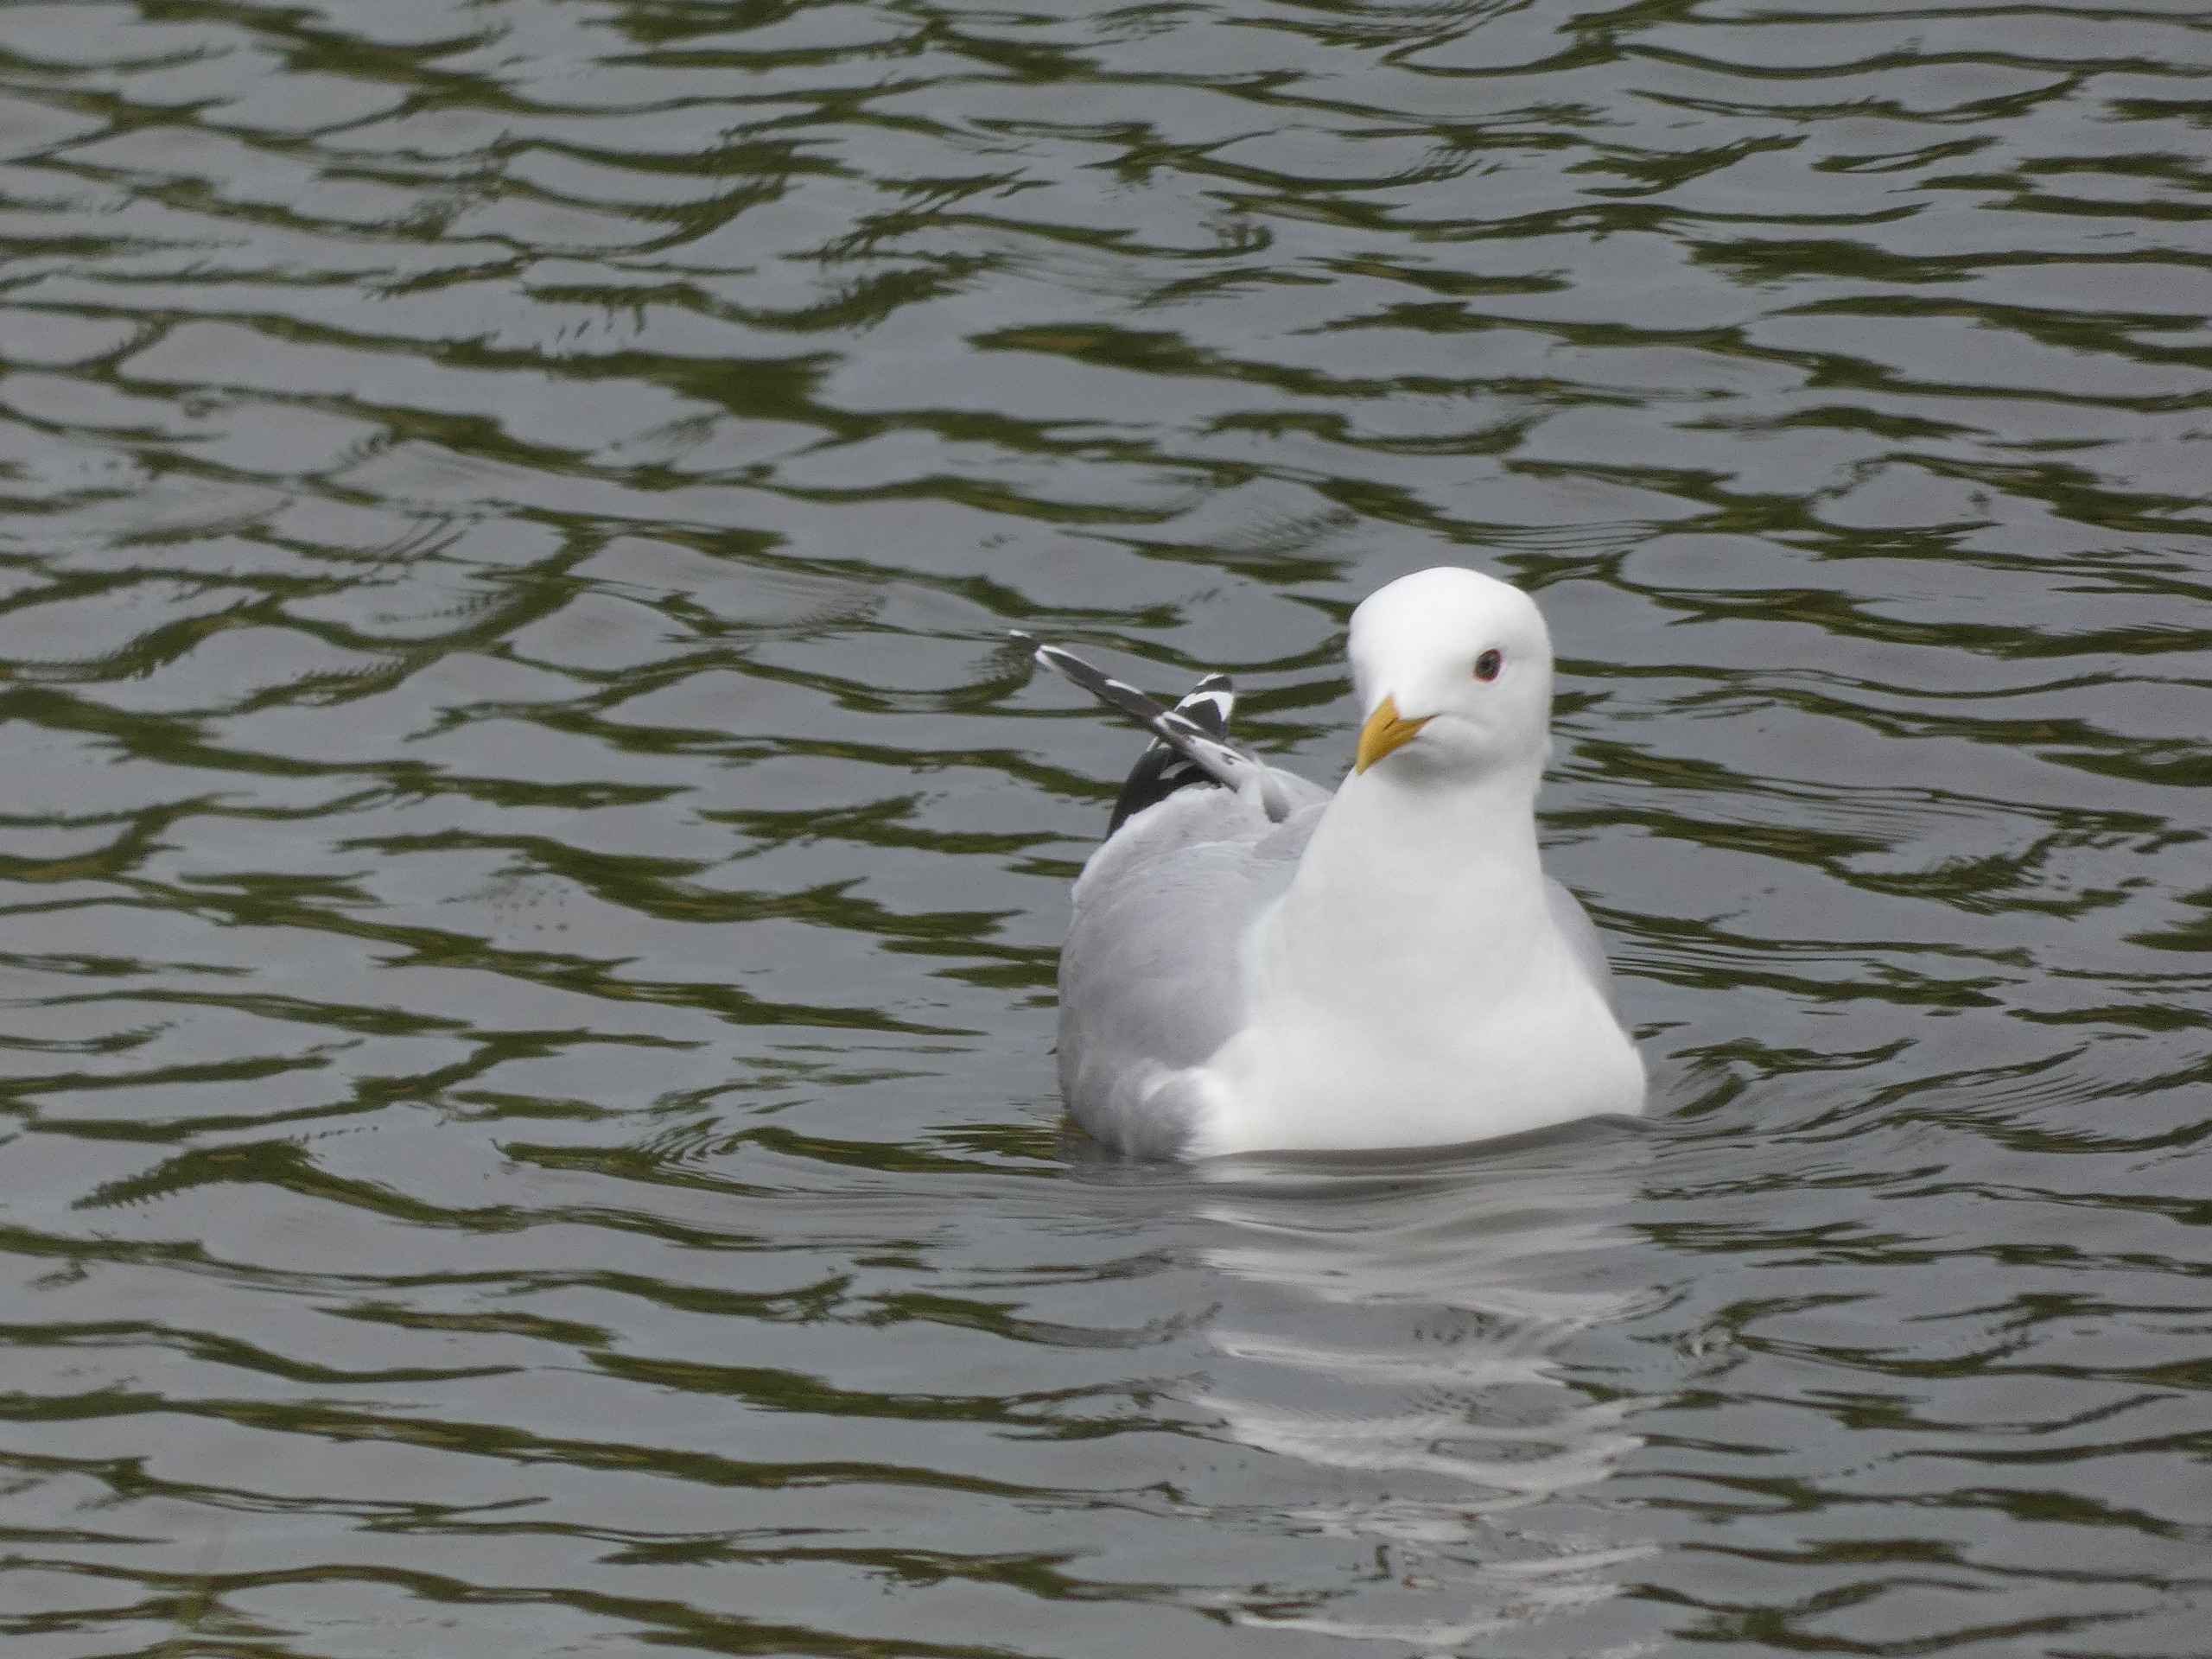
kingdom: Animalia
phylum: Chordata
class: Aves
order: Charadriiformes
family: Laridae
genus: Larus
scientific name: Larus canus
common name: Stormmåge
